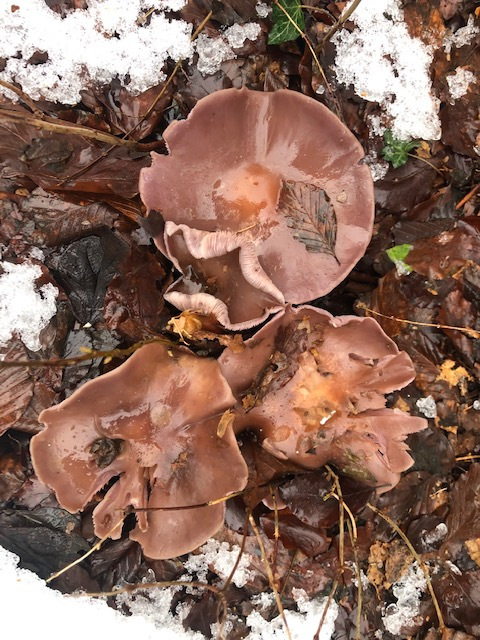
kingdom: Fungi
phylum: Basidiomycota
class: Agaricomycetes
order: Agaricales
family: Tricholomataceae
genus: Lepista
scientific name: Lepista nuda
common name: violet hekseringshat
